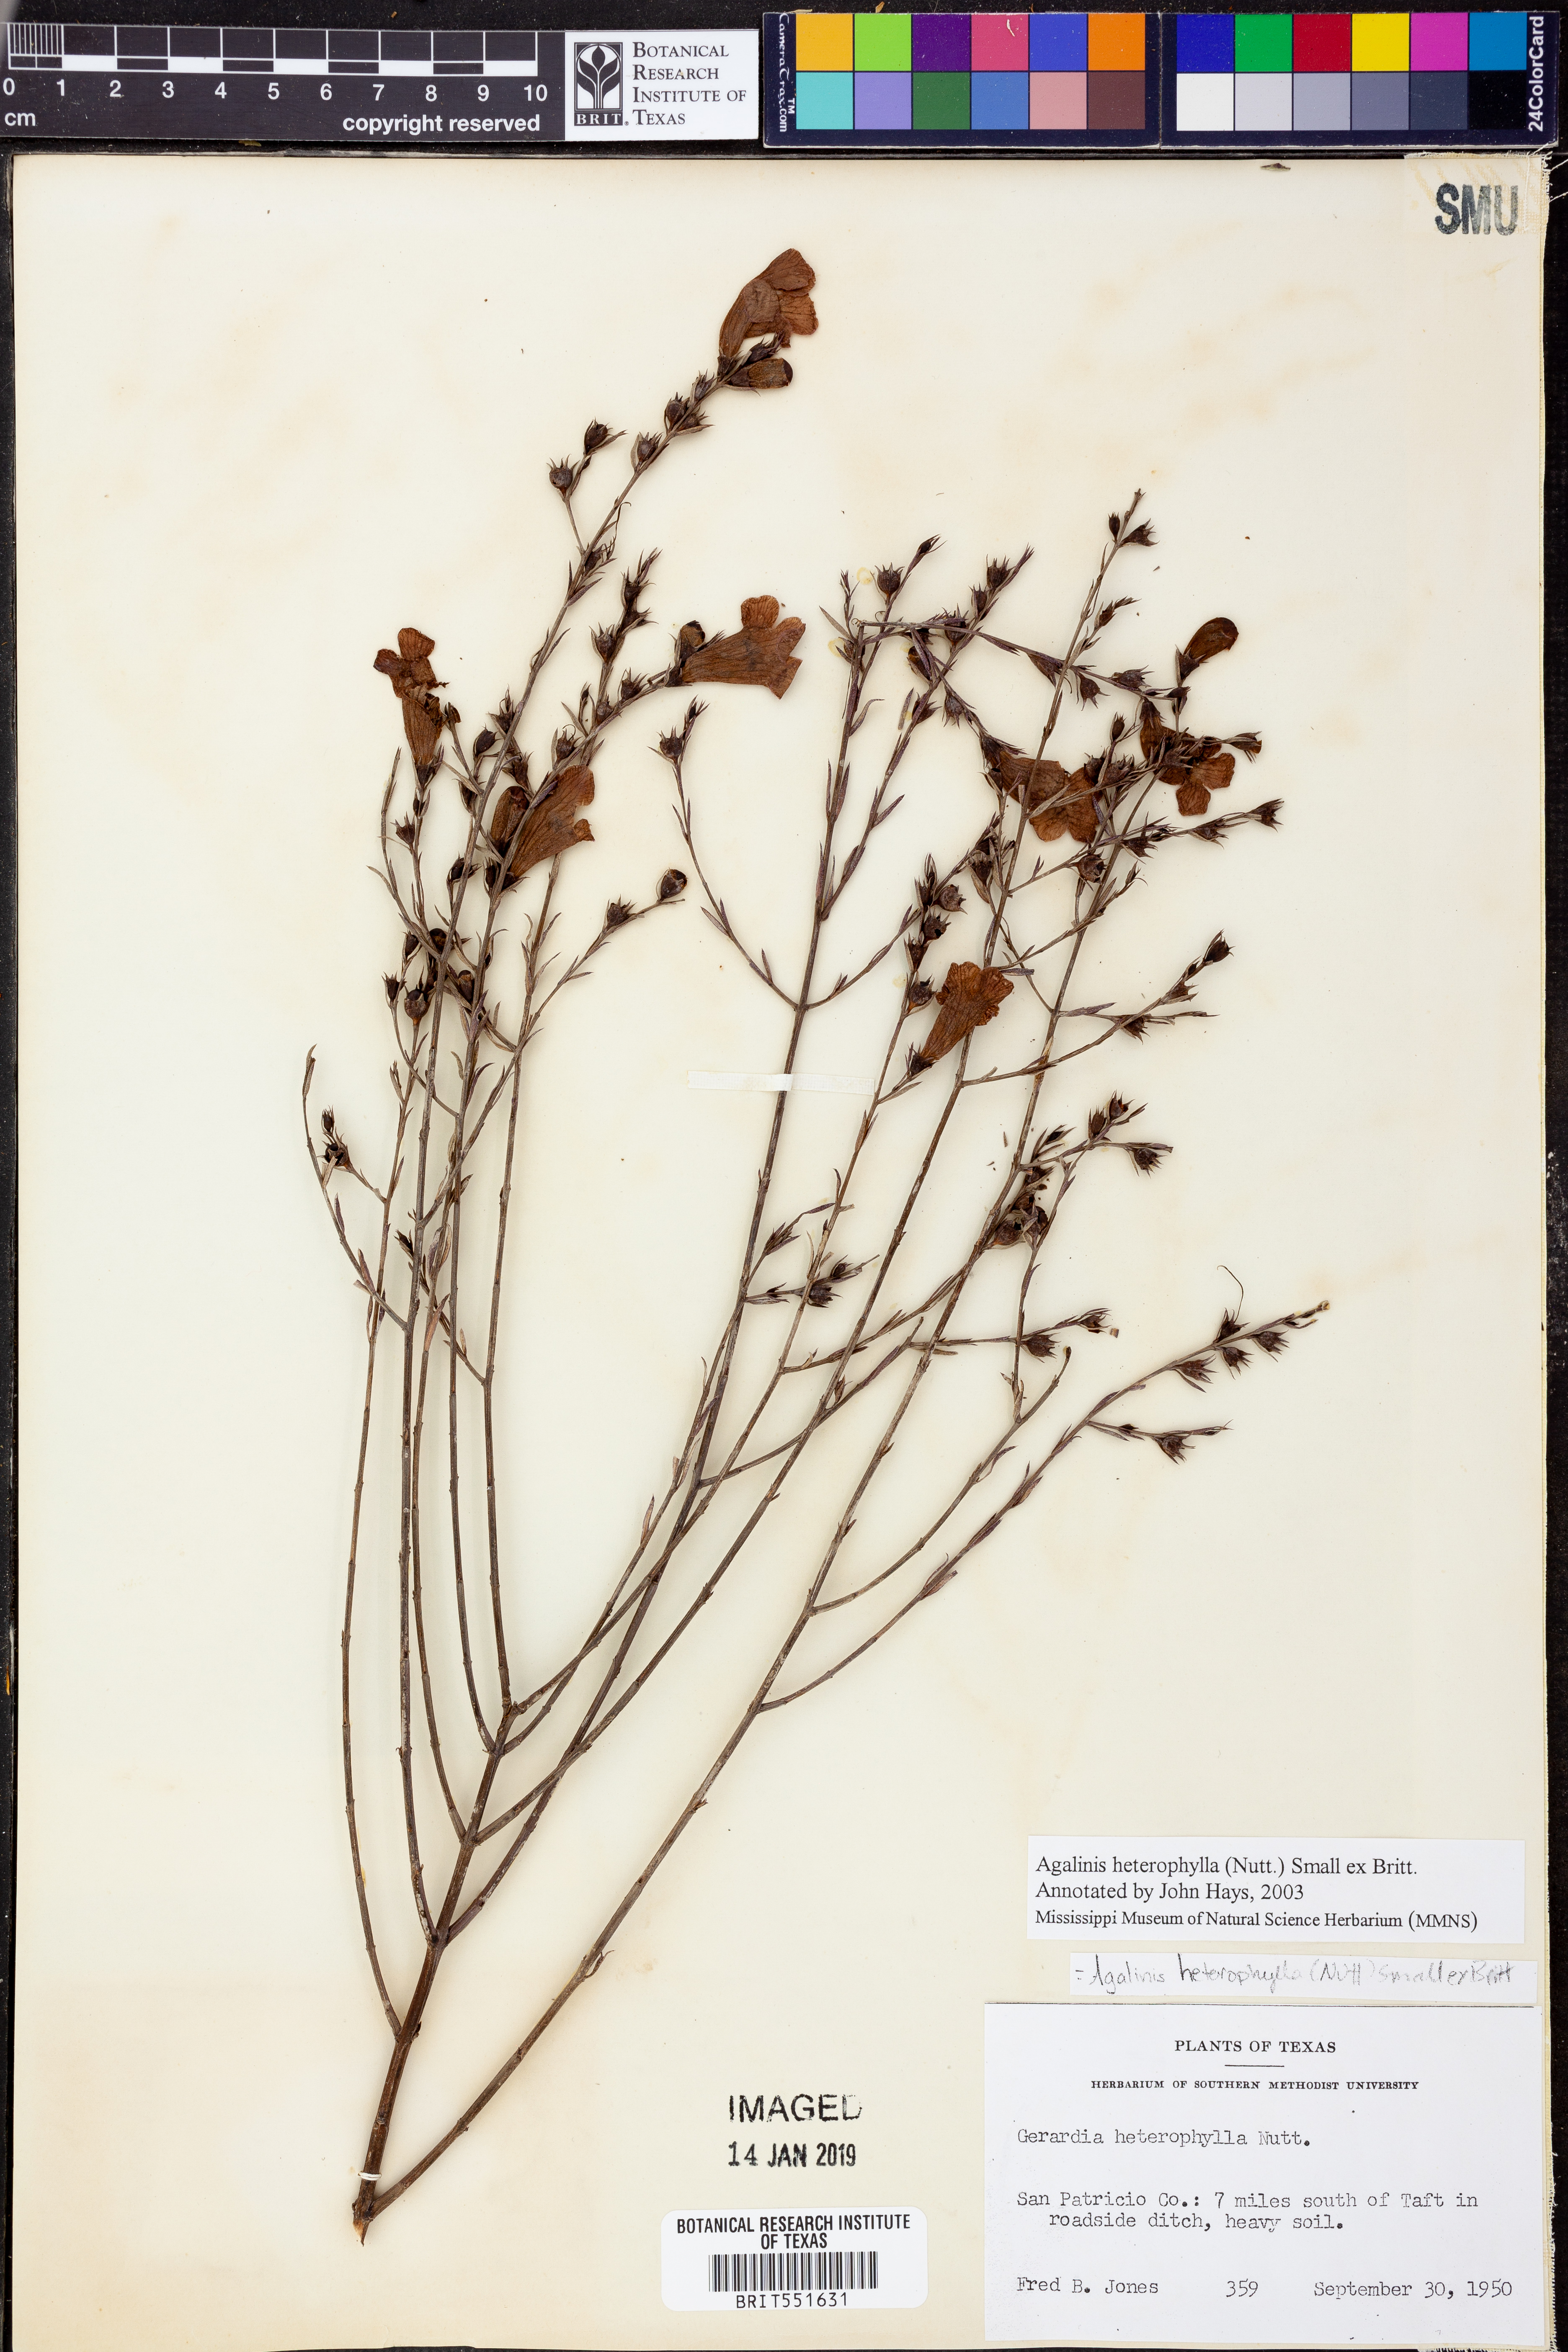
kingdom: Plantae
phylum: Tracheophyta
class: Magnoliopsida
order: Lamiales
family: Orobanchaceae
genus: Agalinis
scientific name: Agalinis heterophylla
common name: Prairie agalinis
